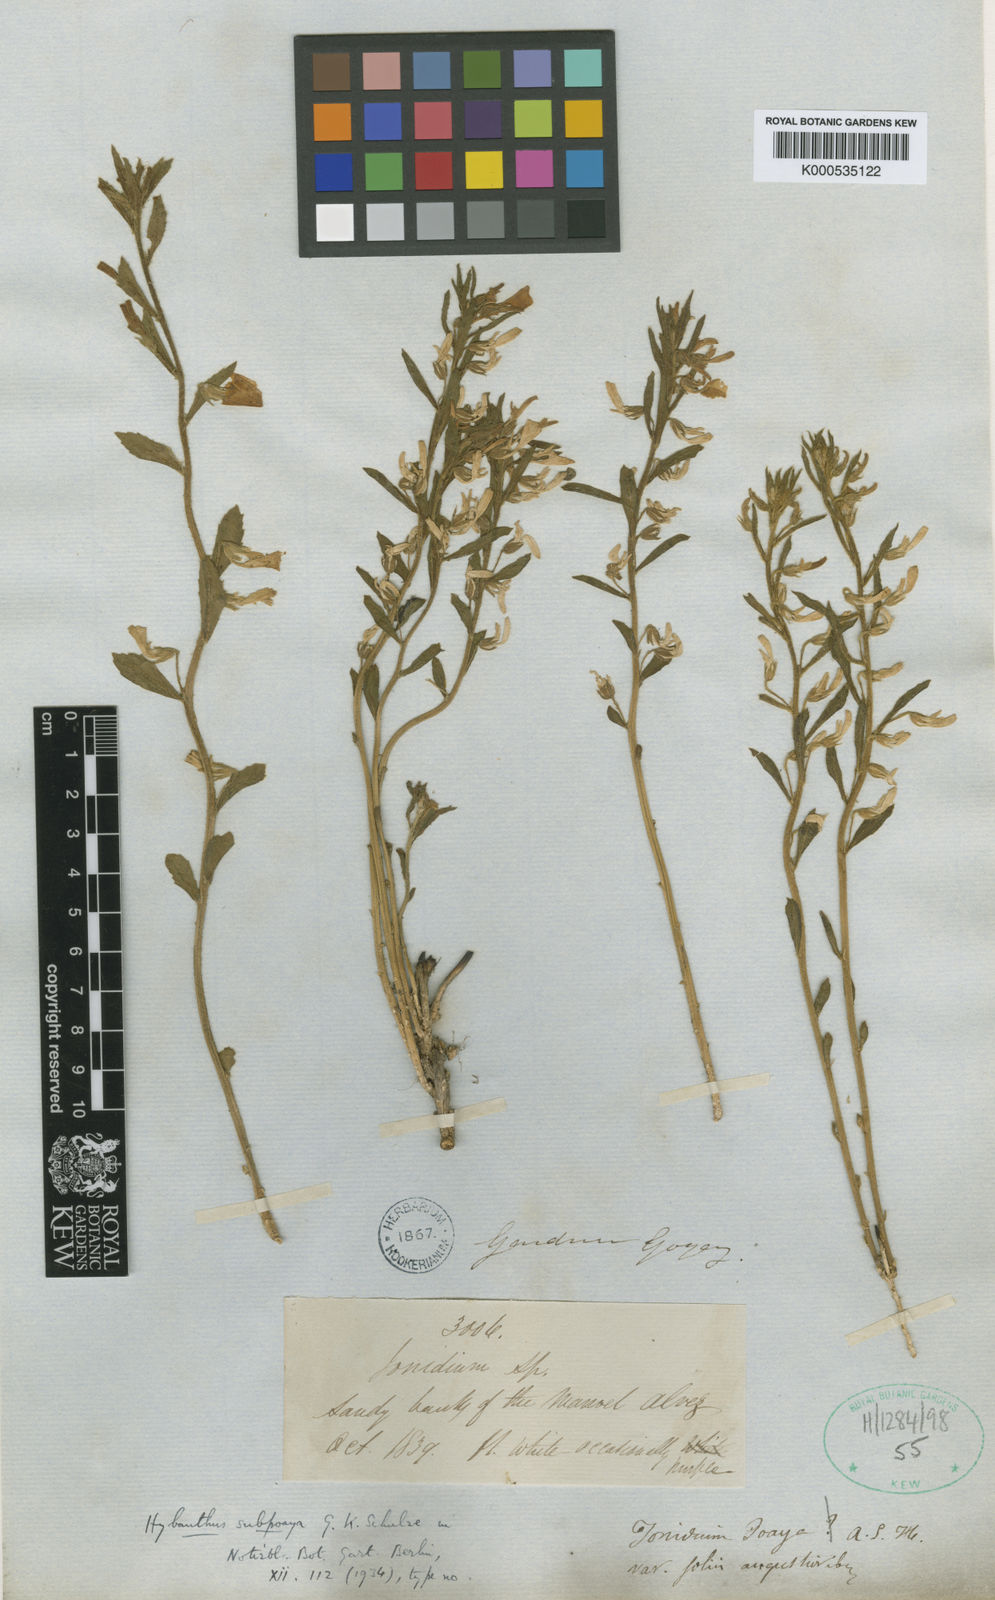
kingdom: Plantae
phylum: Tracheophyta
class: Magnoliopsida
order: Malpighiales
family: Violaceae
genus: Pombalia
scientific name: Pombalia lanata
